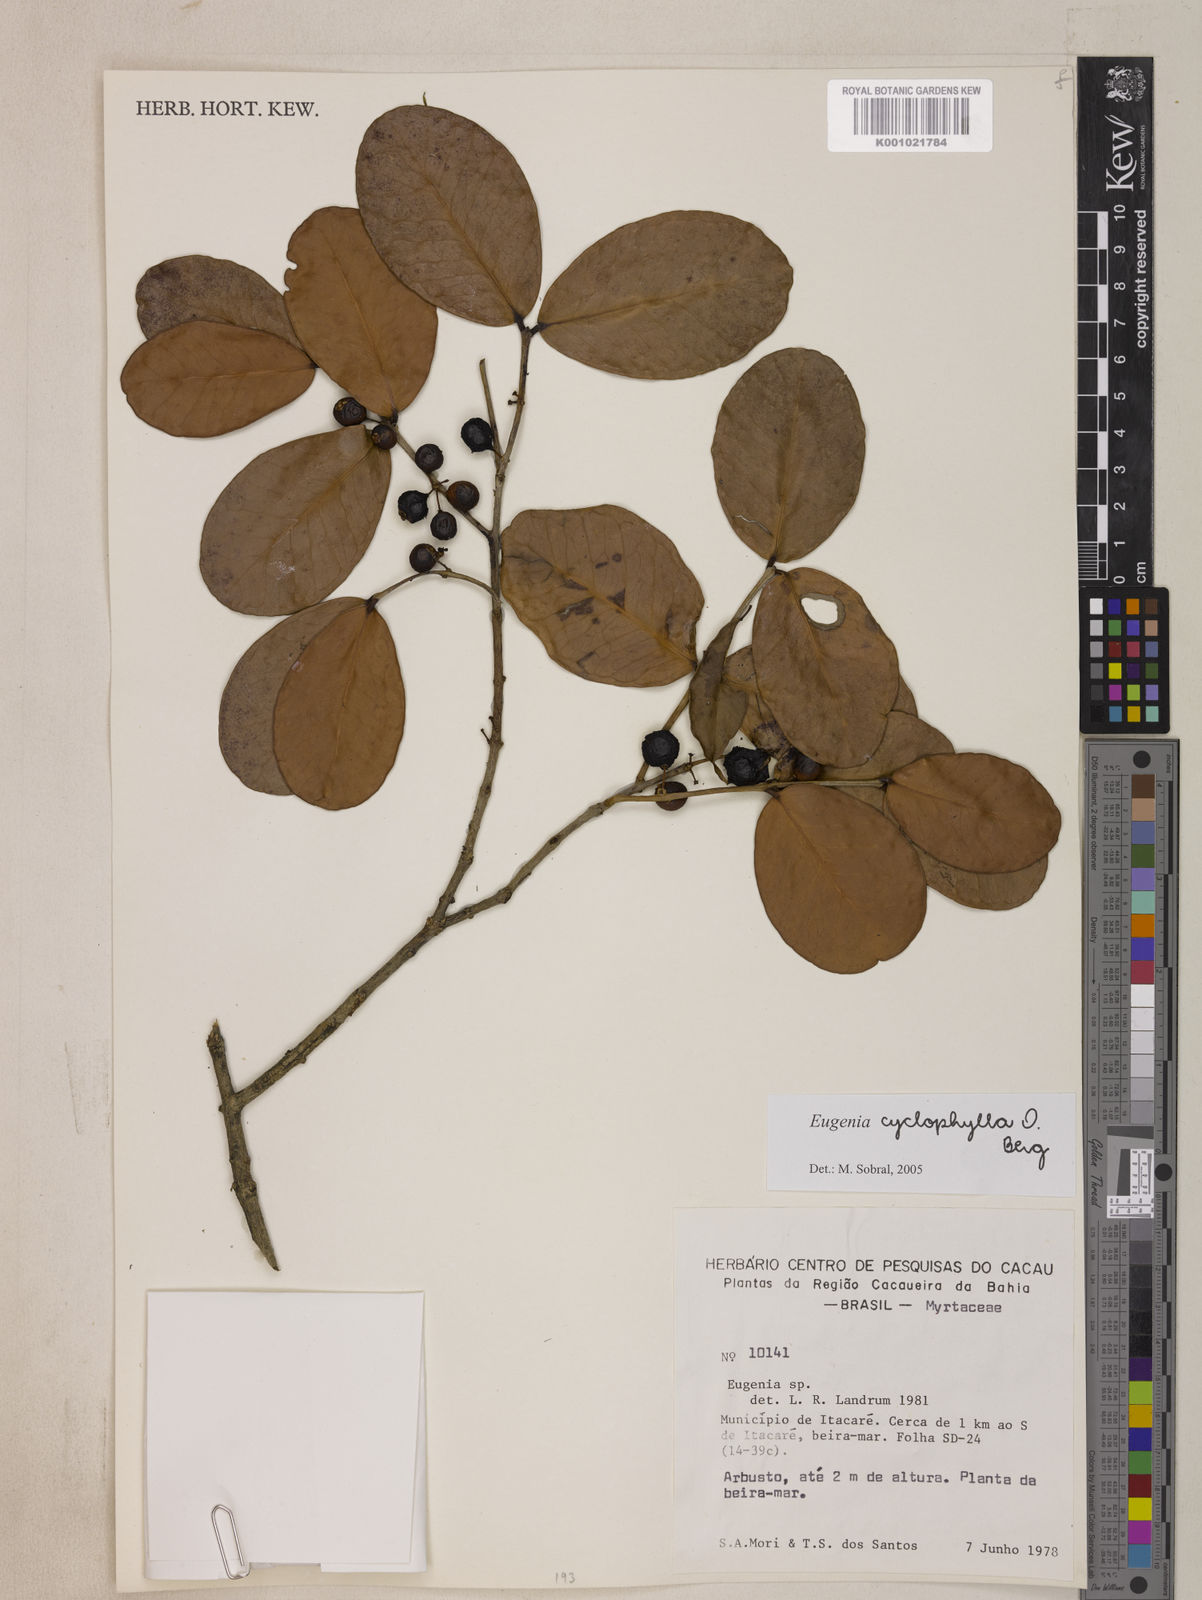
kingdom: Plantae
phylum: Tracheophyta
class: Magnoliopsida
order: Myrtales
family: Myrtaceae
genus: Eugenia
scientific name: Eugenia cyclophylla
